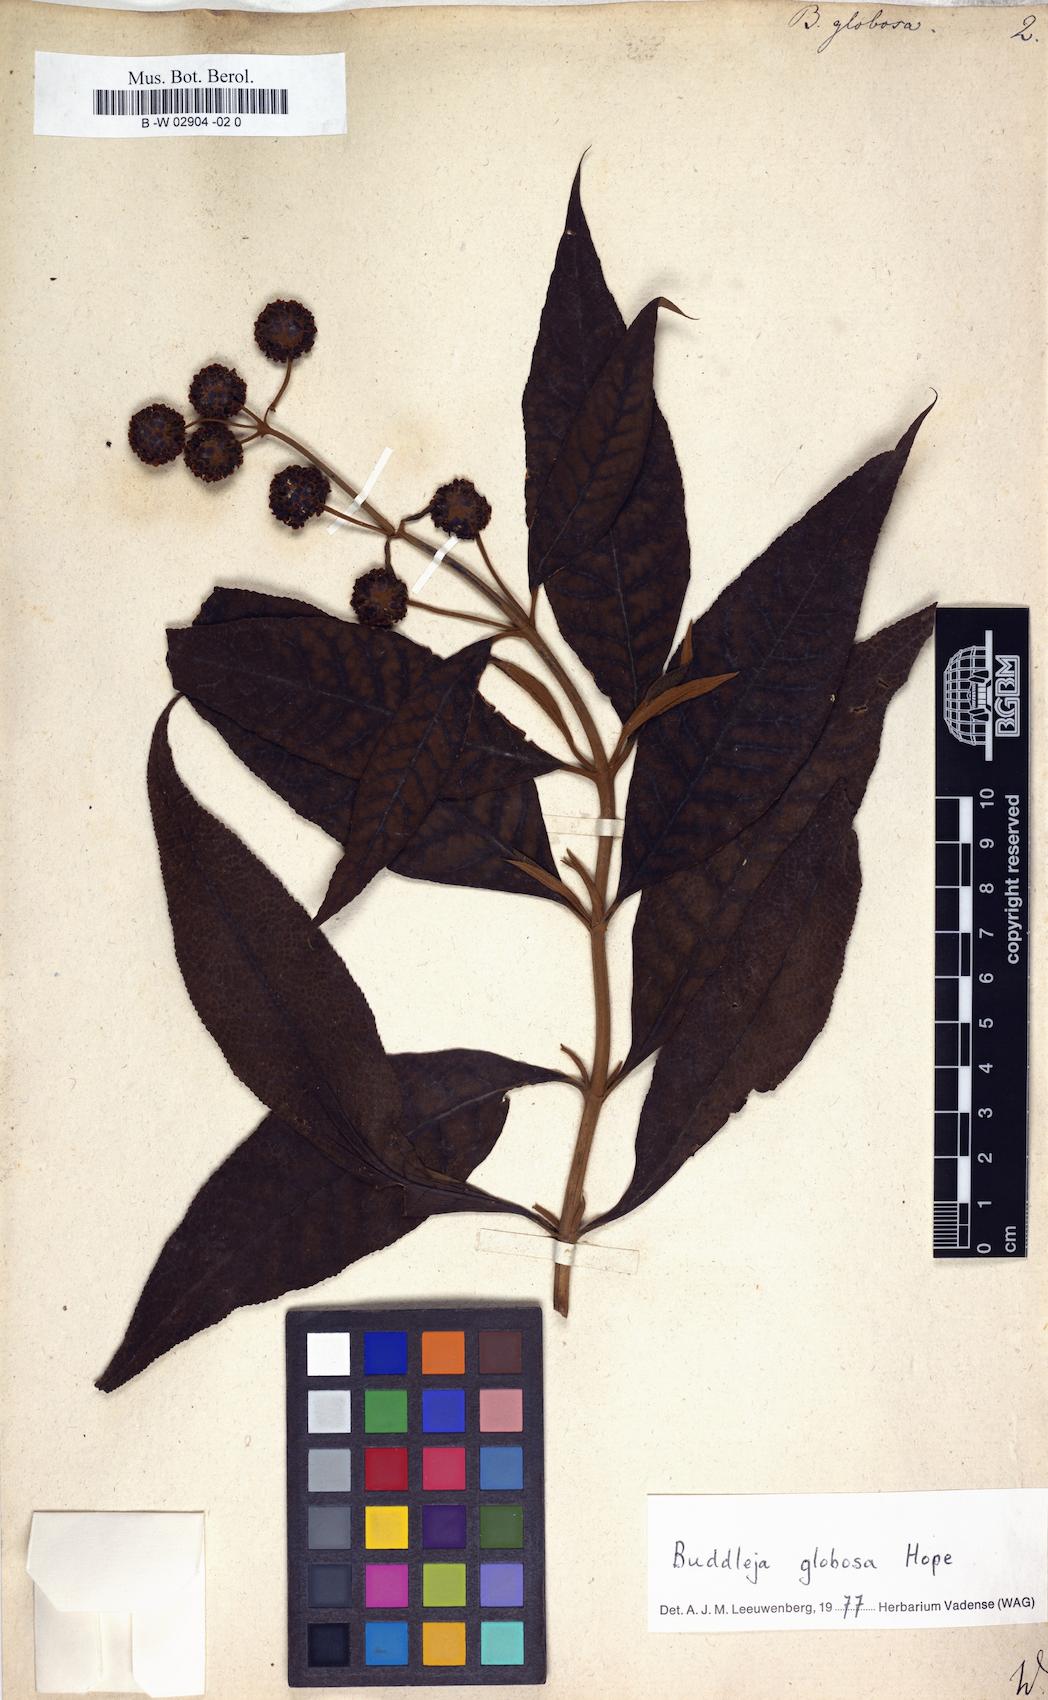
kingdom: Plantae
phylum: Tracheophyta
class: Magnoliopsida
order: Lamiales
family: Scrophulariaceae
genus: Buddleja
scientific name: Buddleja globosa
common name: Orange-ball-tree
